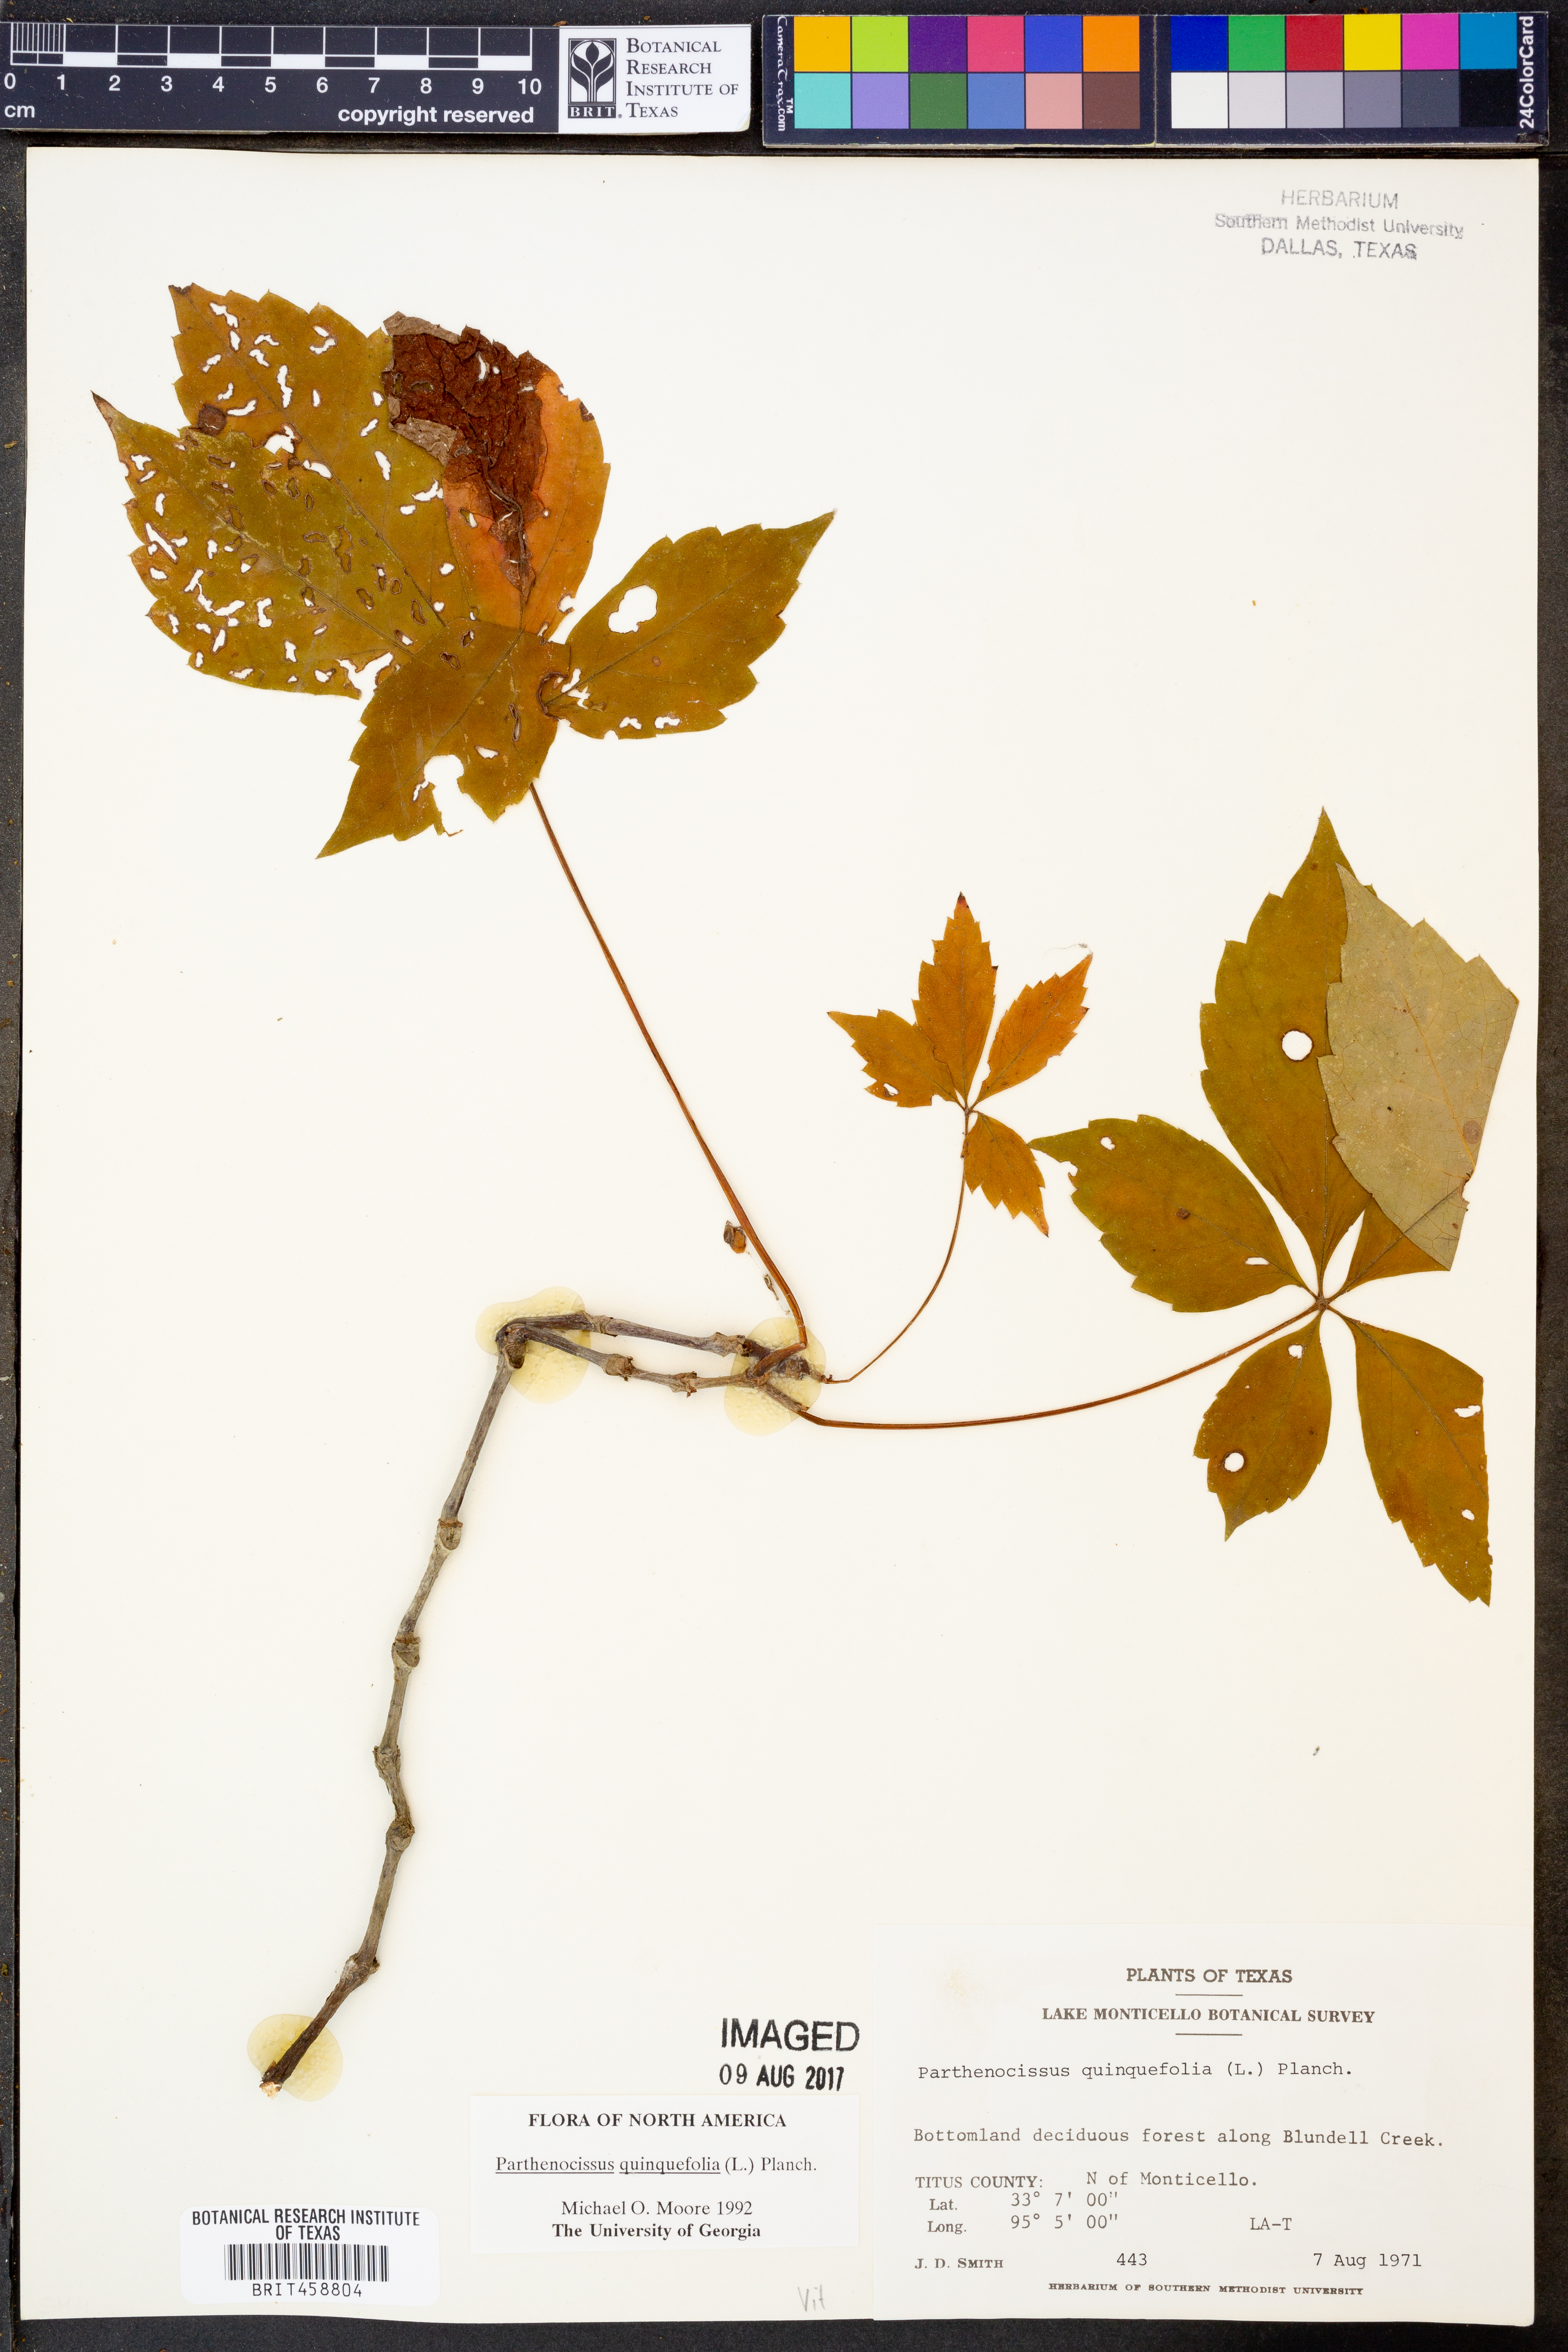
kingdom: Plantae
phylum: Tracheophyta
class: Magnoliopsida
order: Vitales
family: Vitaceae
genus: Parthenocissus
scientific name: Parthenocissus quinquefolia
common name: Virginia-creeper
